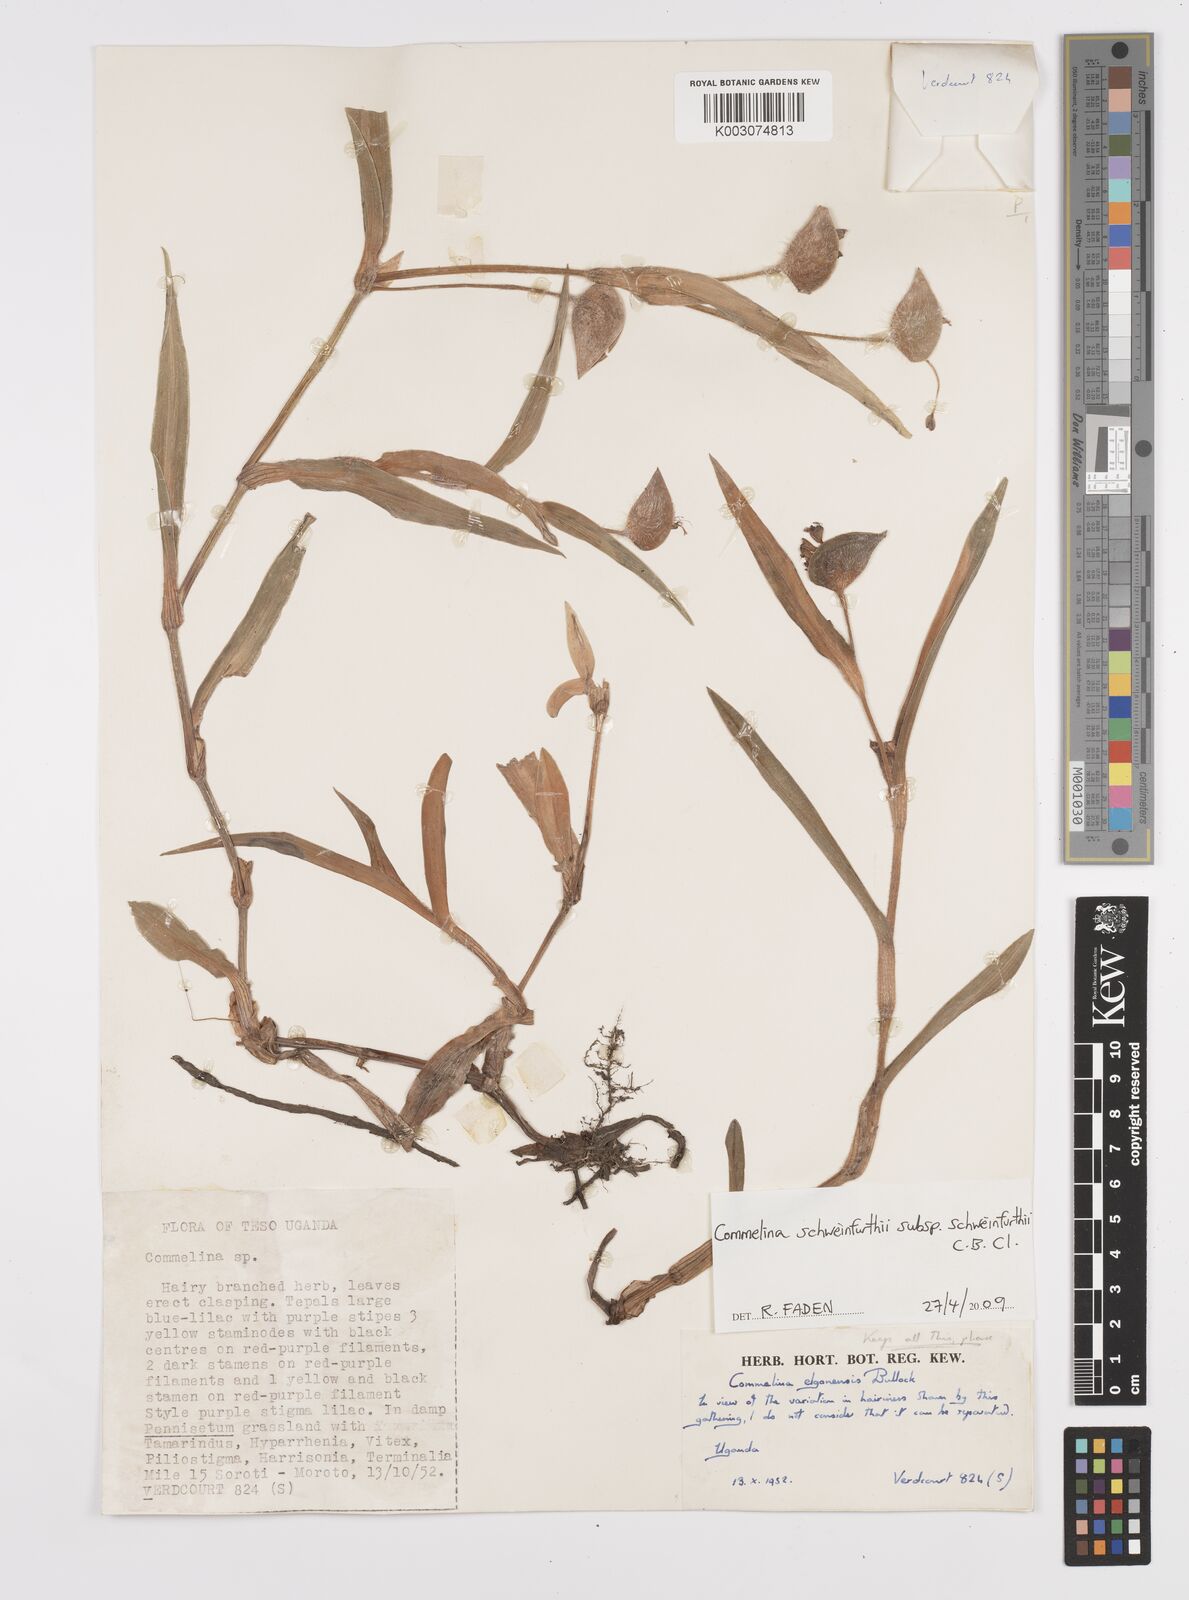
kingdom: Plantae
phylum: Tracheophyta
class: Liliopsida
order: Commelinales
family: Commelinaceae
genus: Commelina
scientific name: Commelina schweinfurthii
